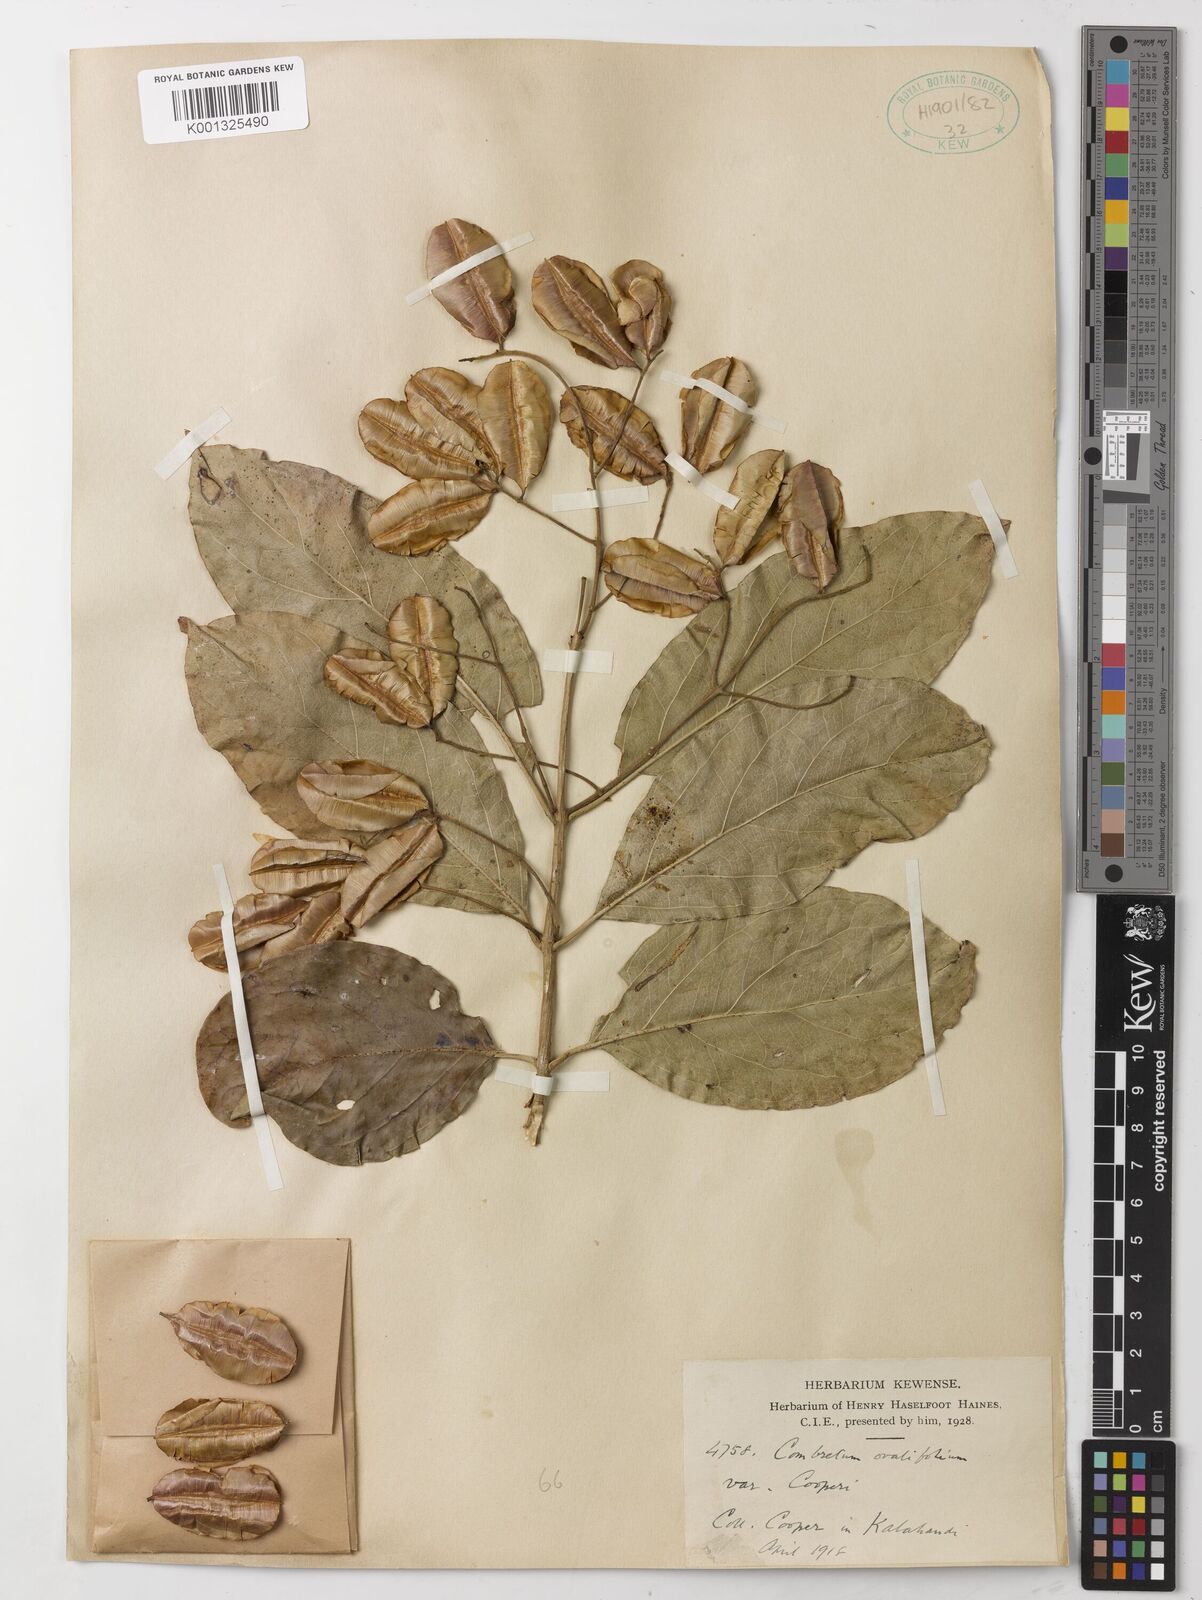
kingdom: Plantae
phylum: Tracheophyta
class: Magnoliopsida
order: Myrtales
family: Combretaceae
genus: Combretum
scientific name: Combretum albidum
